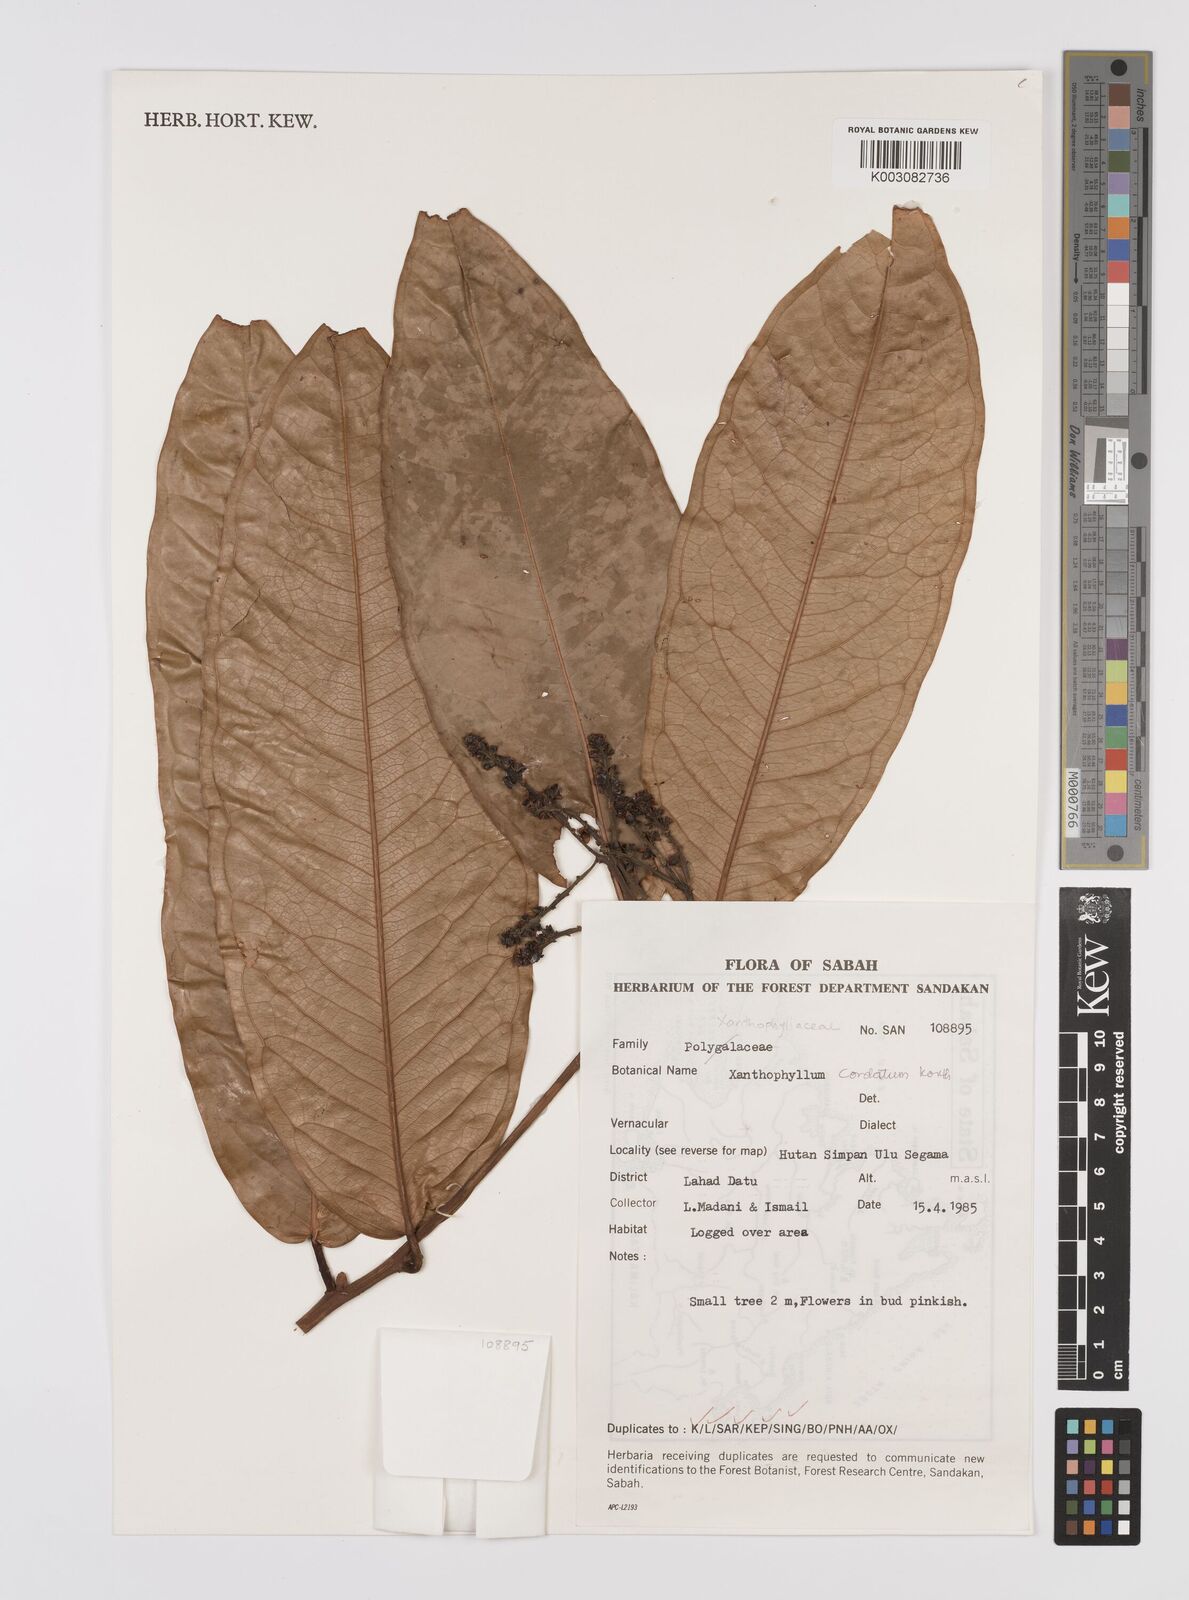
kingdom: Plantae
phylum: Tracheophyta
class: Magnoliopsida
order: Fabales
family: Polygalaceae
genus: Xanthophyllum
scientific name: Xanthophyllum adenotus
